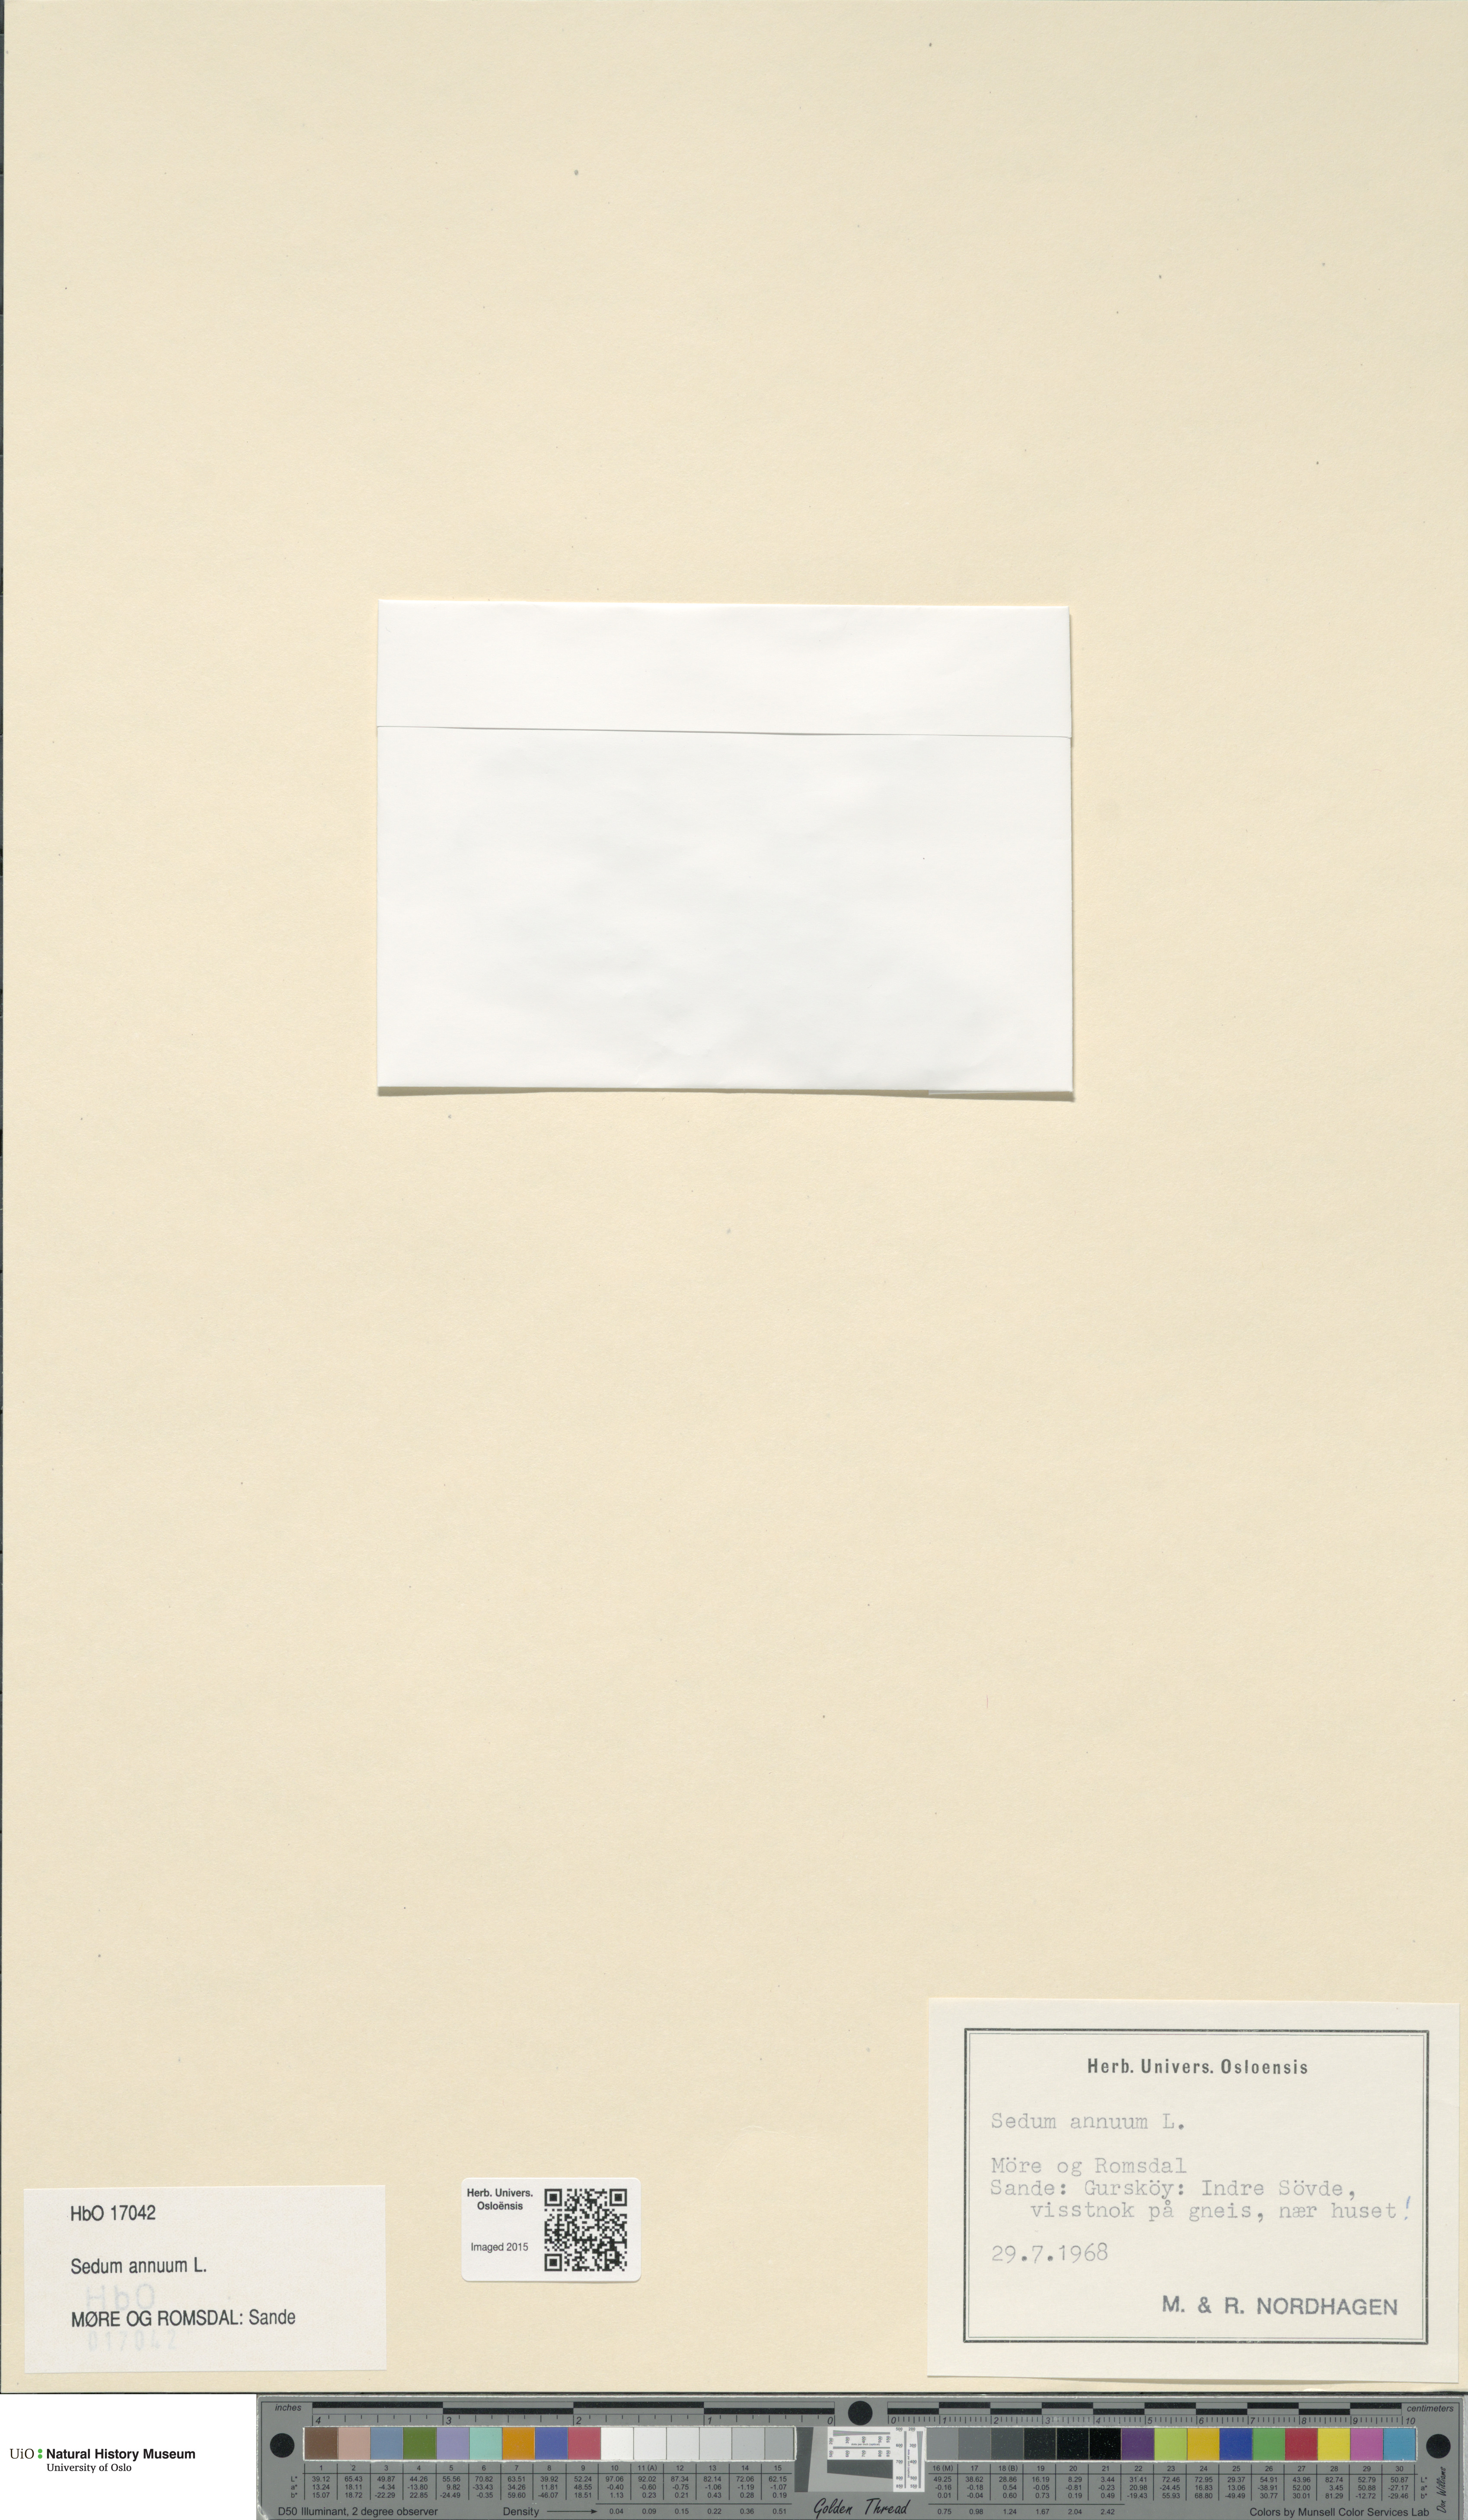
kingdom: Plantae
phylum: Tracheophyta
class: Magnoliopsida
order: Saxifragales
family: Crassulaceae
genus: Sedum
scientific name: Sedum annuum
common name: Annual stonecrop
